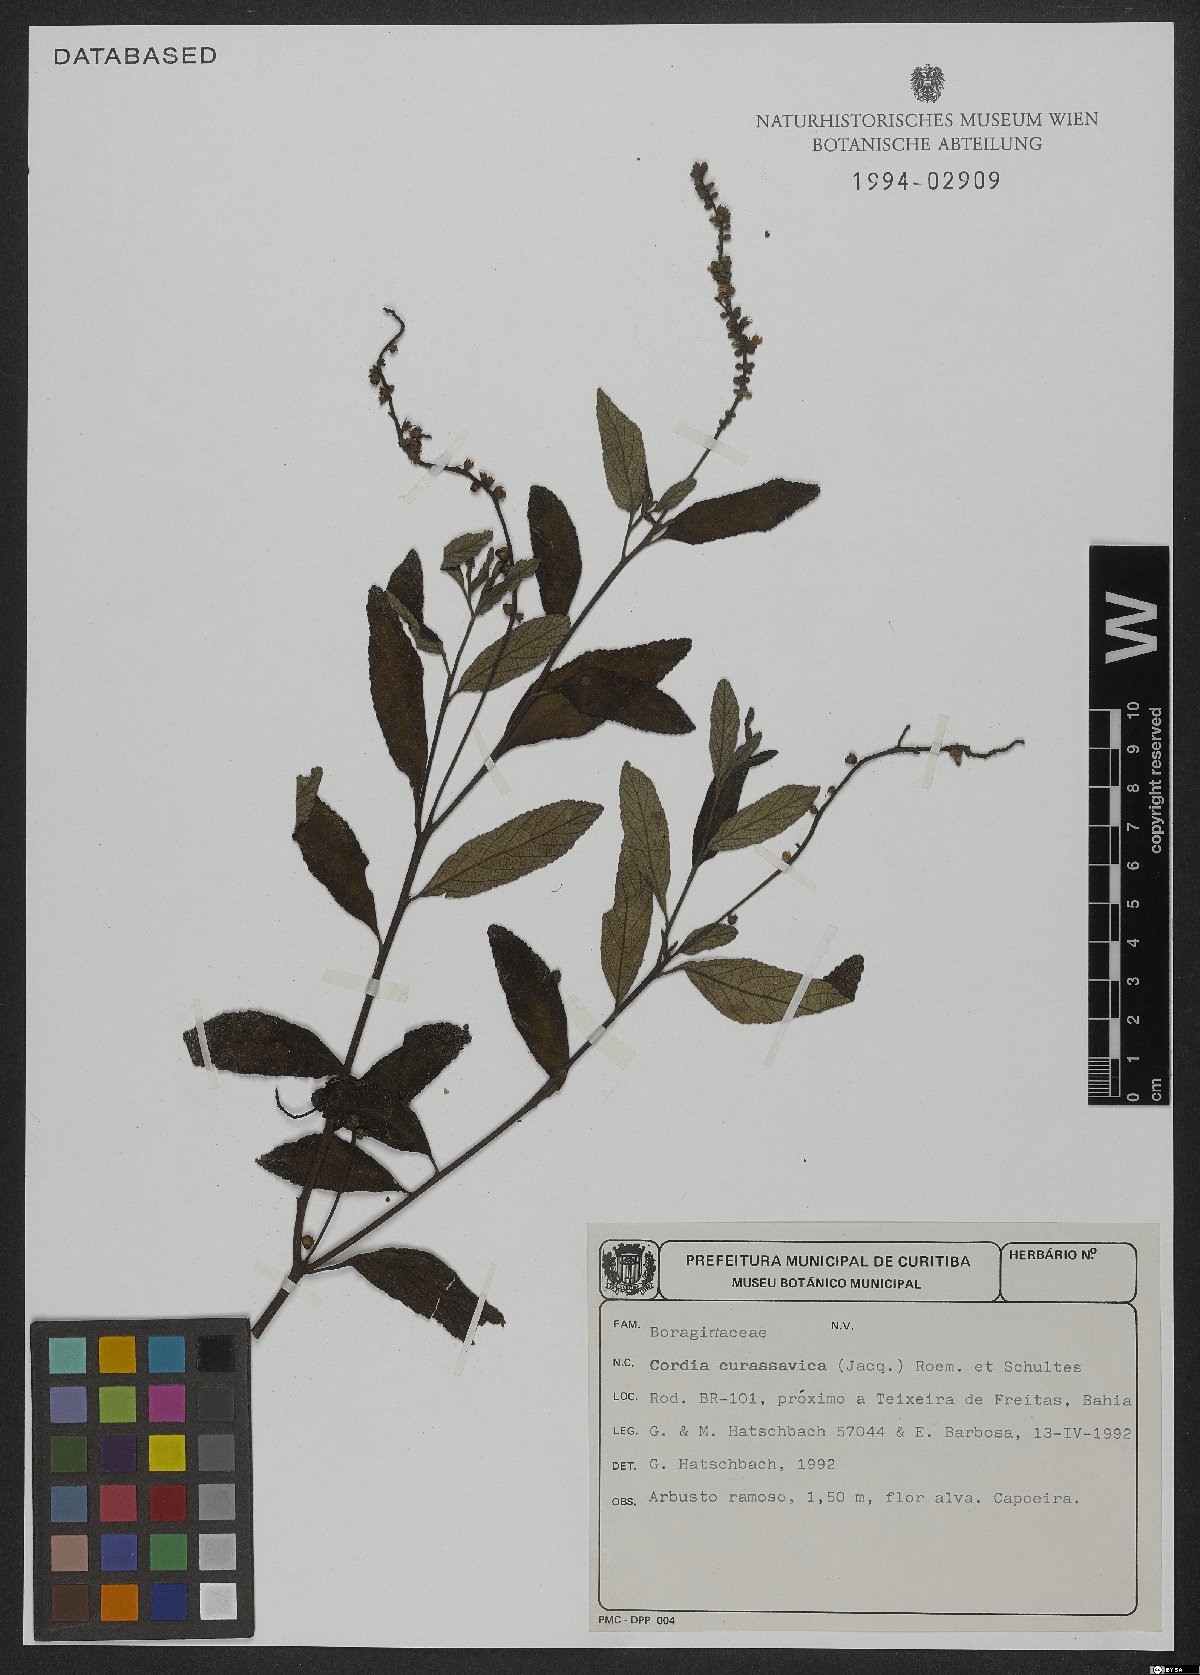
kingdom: Plantae
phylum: Tracheophyta
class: Magnoliopsida
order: Boraginales
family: Cordiaceae
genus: Varronia
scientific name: Varronia curassavica
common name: Black sage
